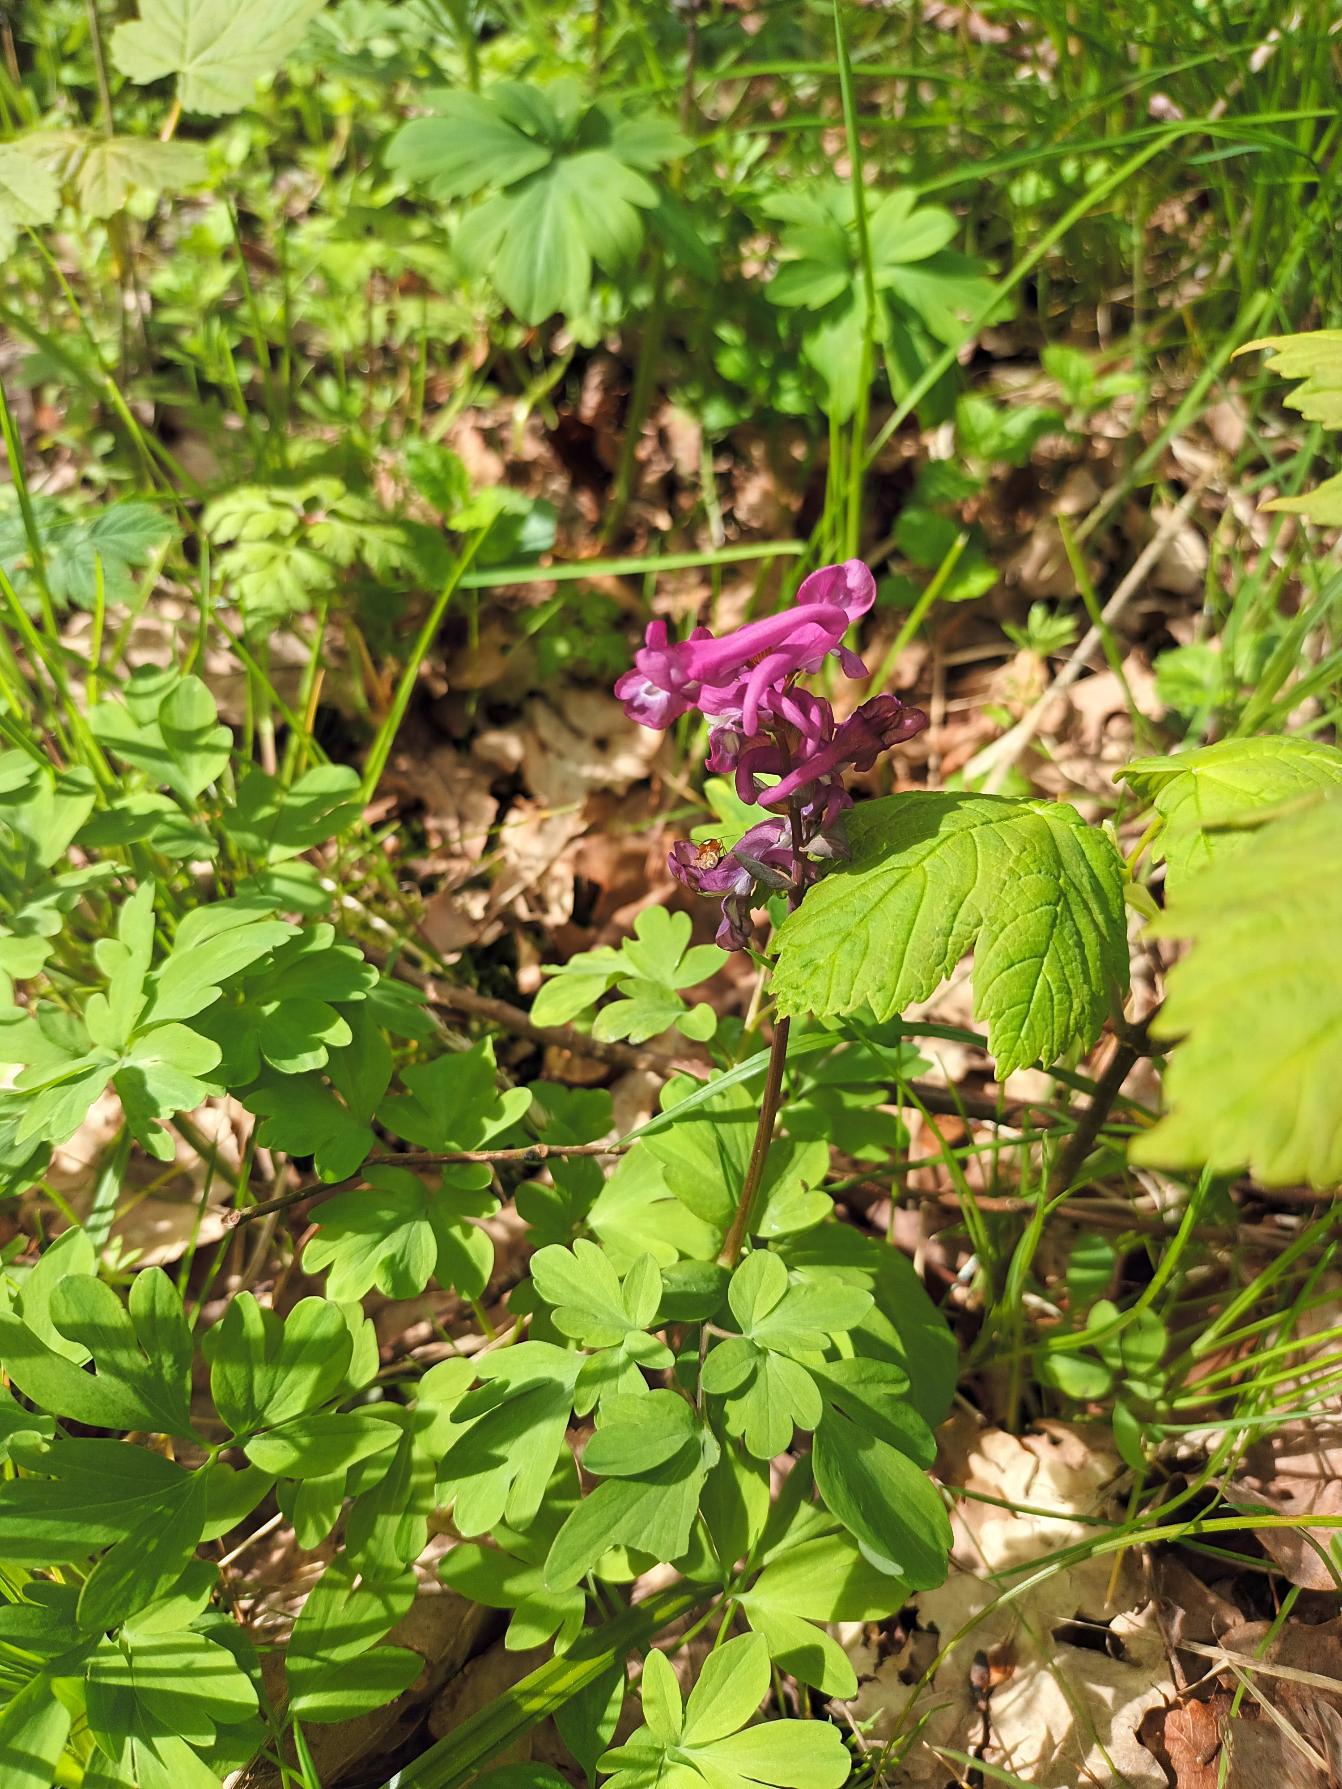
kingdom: Plantae
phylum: Tracheophyta
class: Magnoliopsida
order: Ranunculales
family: Papaveraceae
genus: Corydalis
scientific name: Corydalis cava
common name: Hulrodet lærkespore
